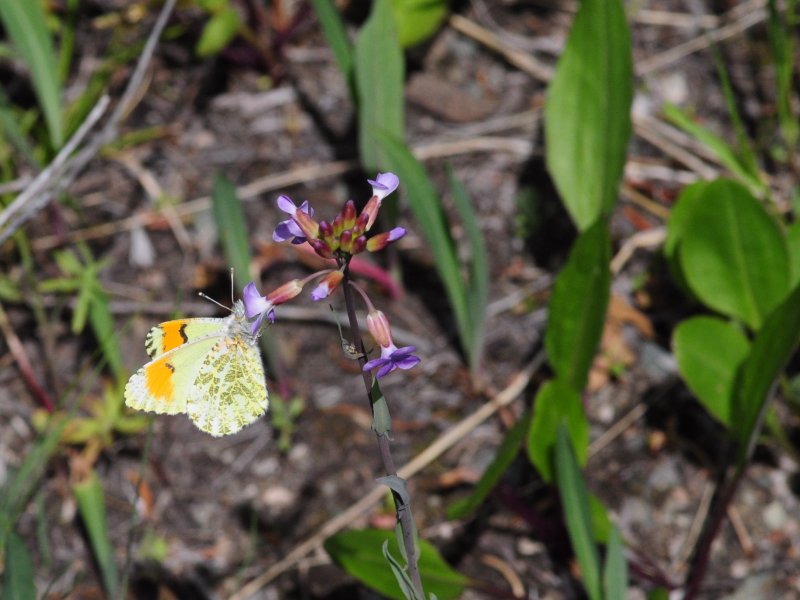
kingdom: Animalia
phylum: Arthropoda
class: Insecta
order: Lepidoptera
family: Pieridae
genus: Anthocharis
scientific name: Anthocharis sara
